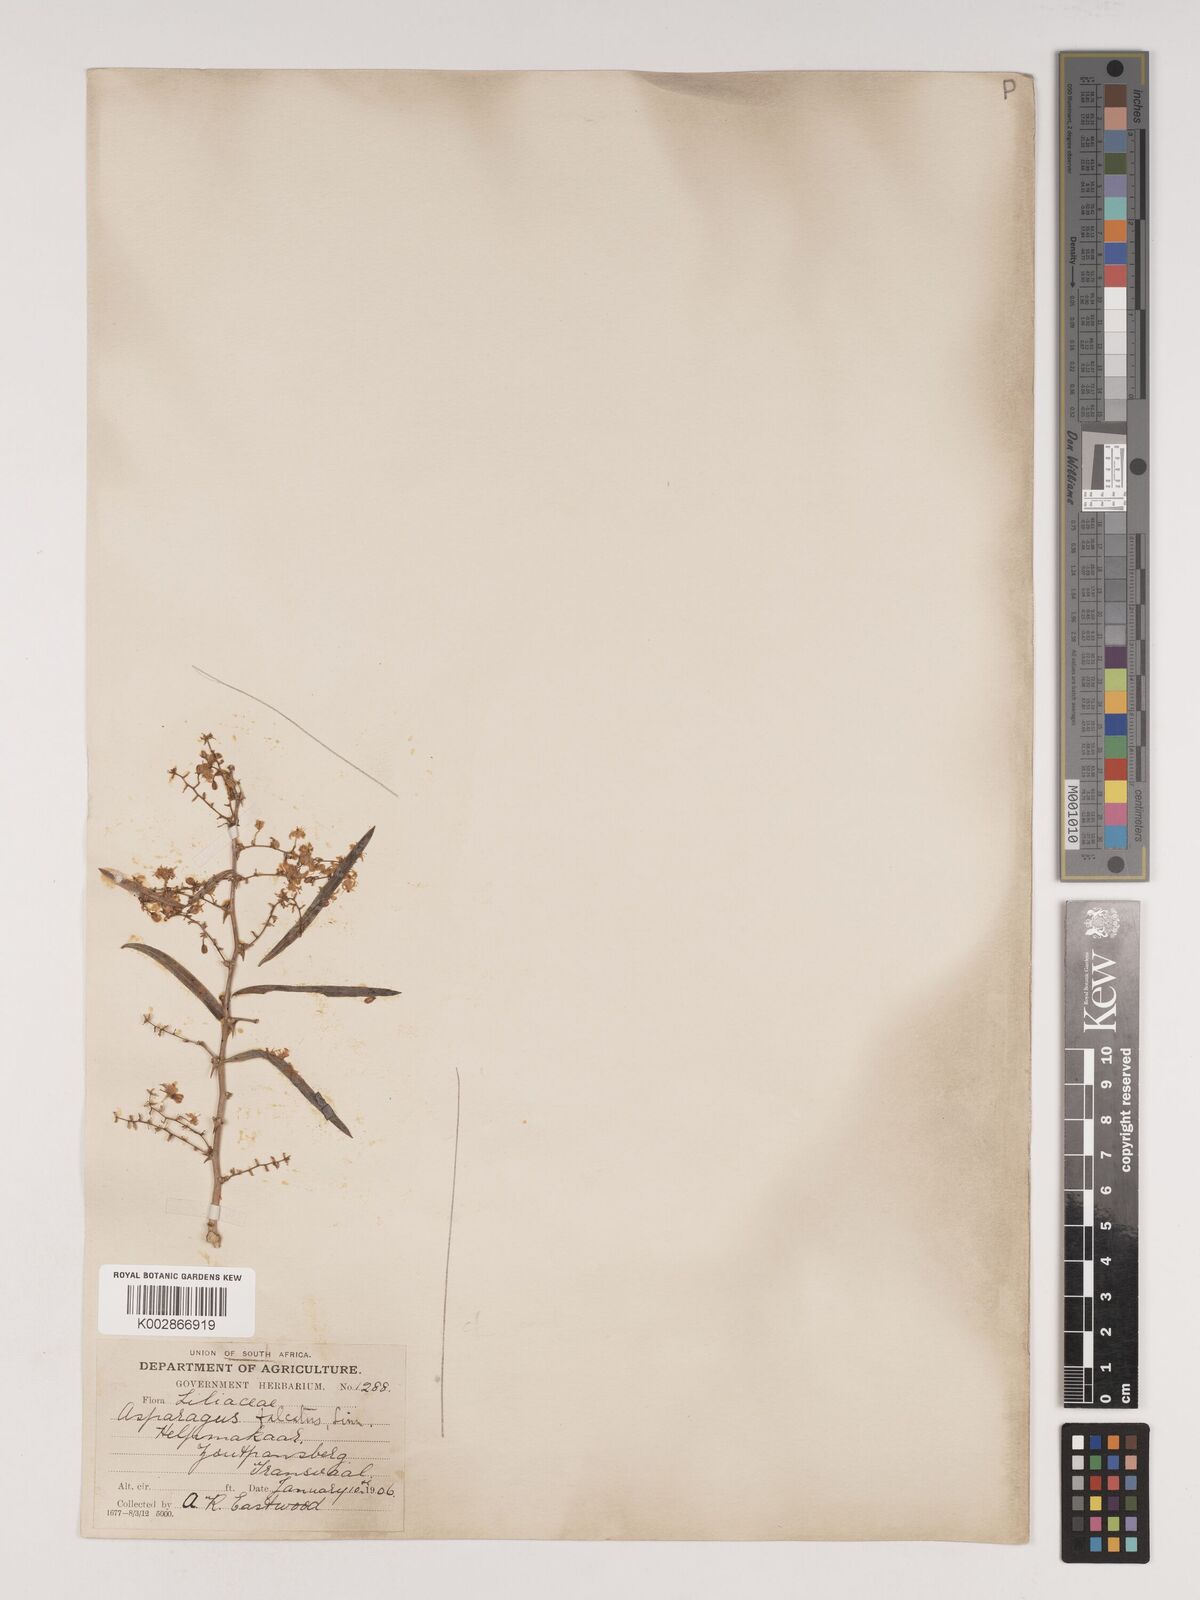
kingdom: Plantae
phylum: Tracheophyta
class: Liliopsida
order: Asparagales
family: Asparagaceae
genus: Asparagus
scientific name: Asparagus falcatus
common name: Asparagus
